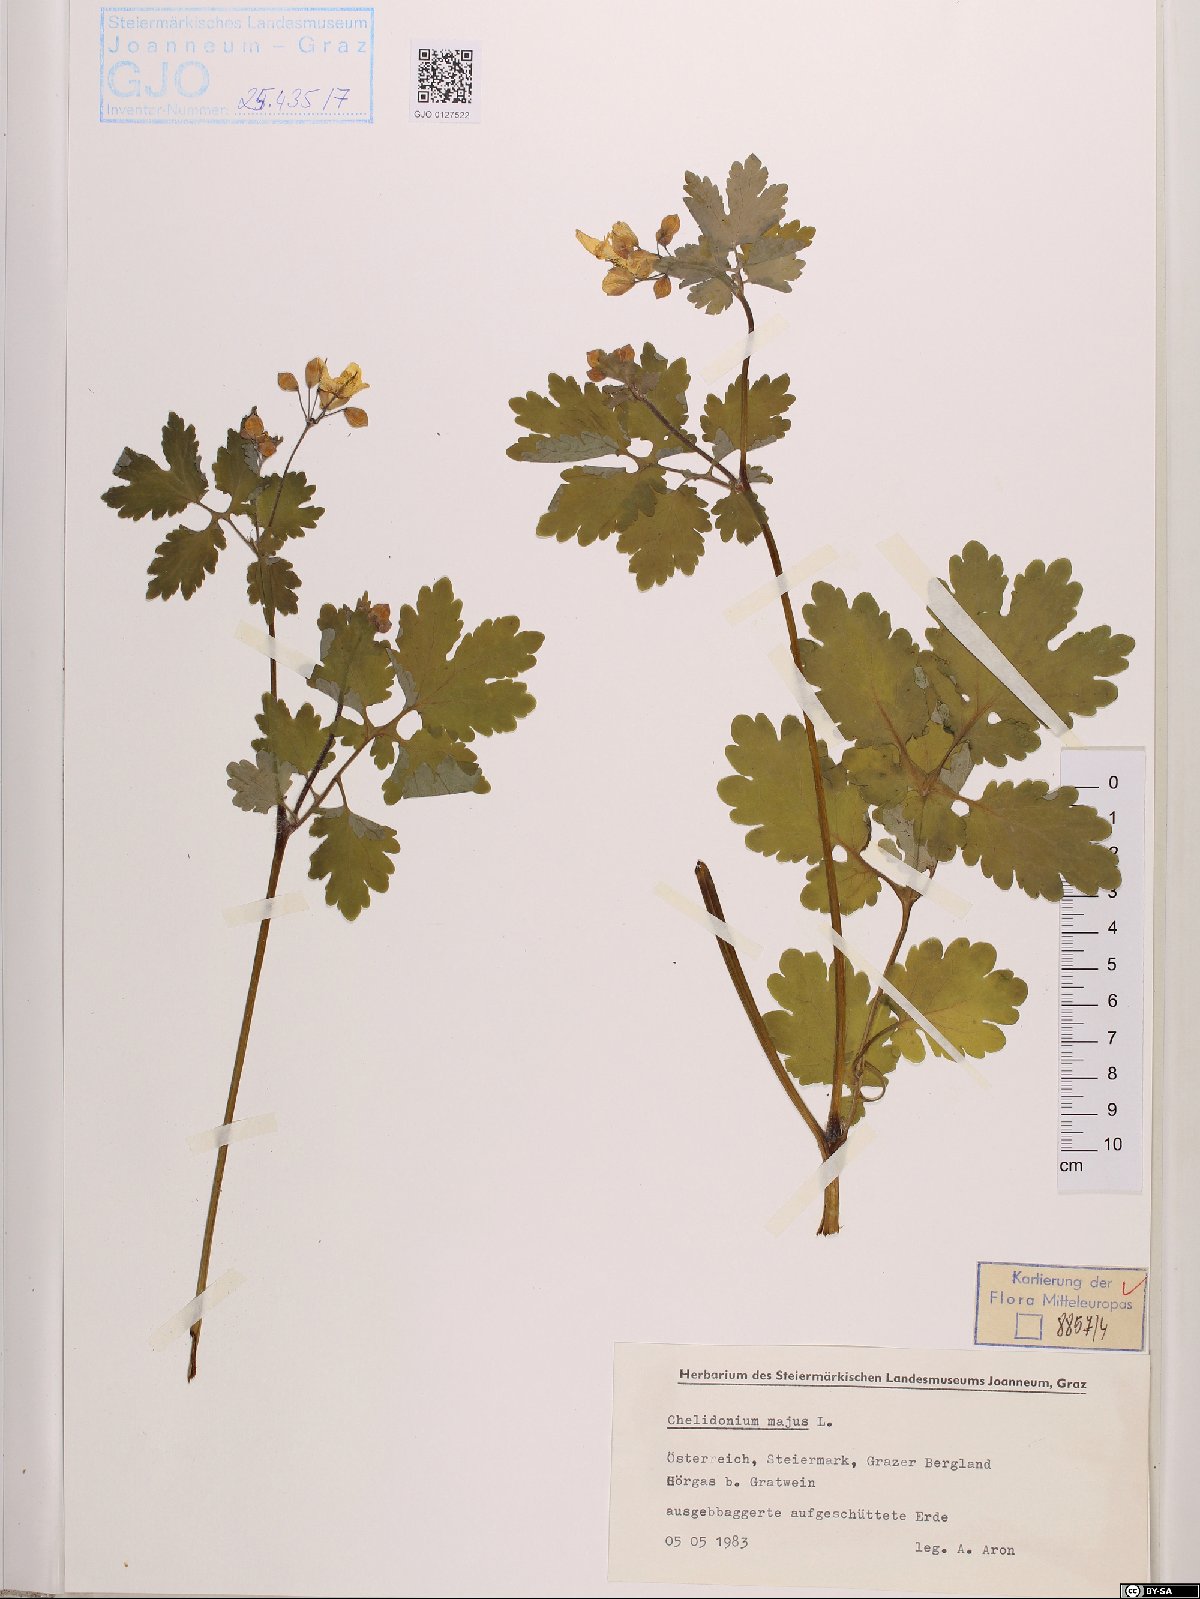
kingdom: Plantae
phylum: Tracheophyta
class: Magnoliopsida
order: Ranunculales
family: Papaveraceae
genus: Chelidonium
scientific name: Chelidonium majus
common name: Greater celandine
